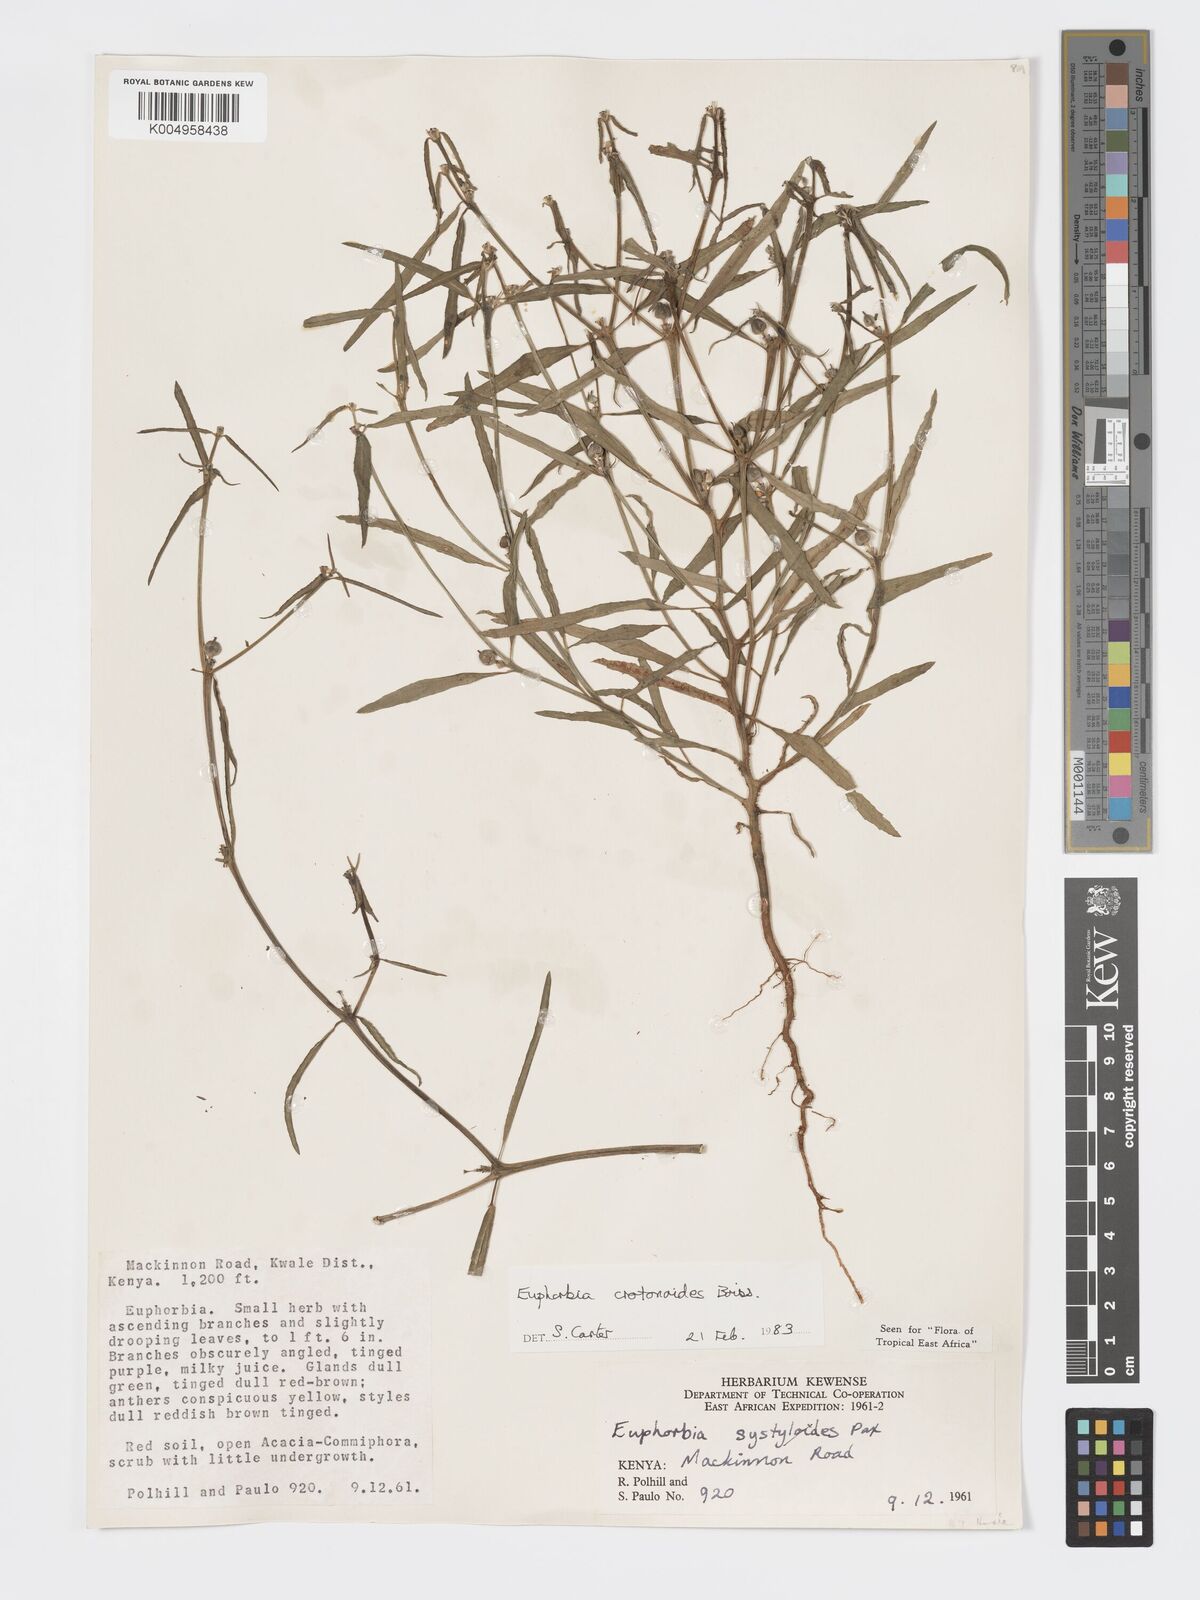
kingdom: Plantae
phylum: Tracheophyta
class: Magnoliopsida
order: Malpighiales
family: Euphorbiaceae
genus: Euphorbia
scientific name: Euphorbia crotonoides
